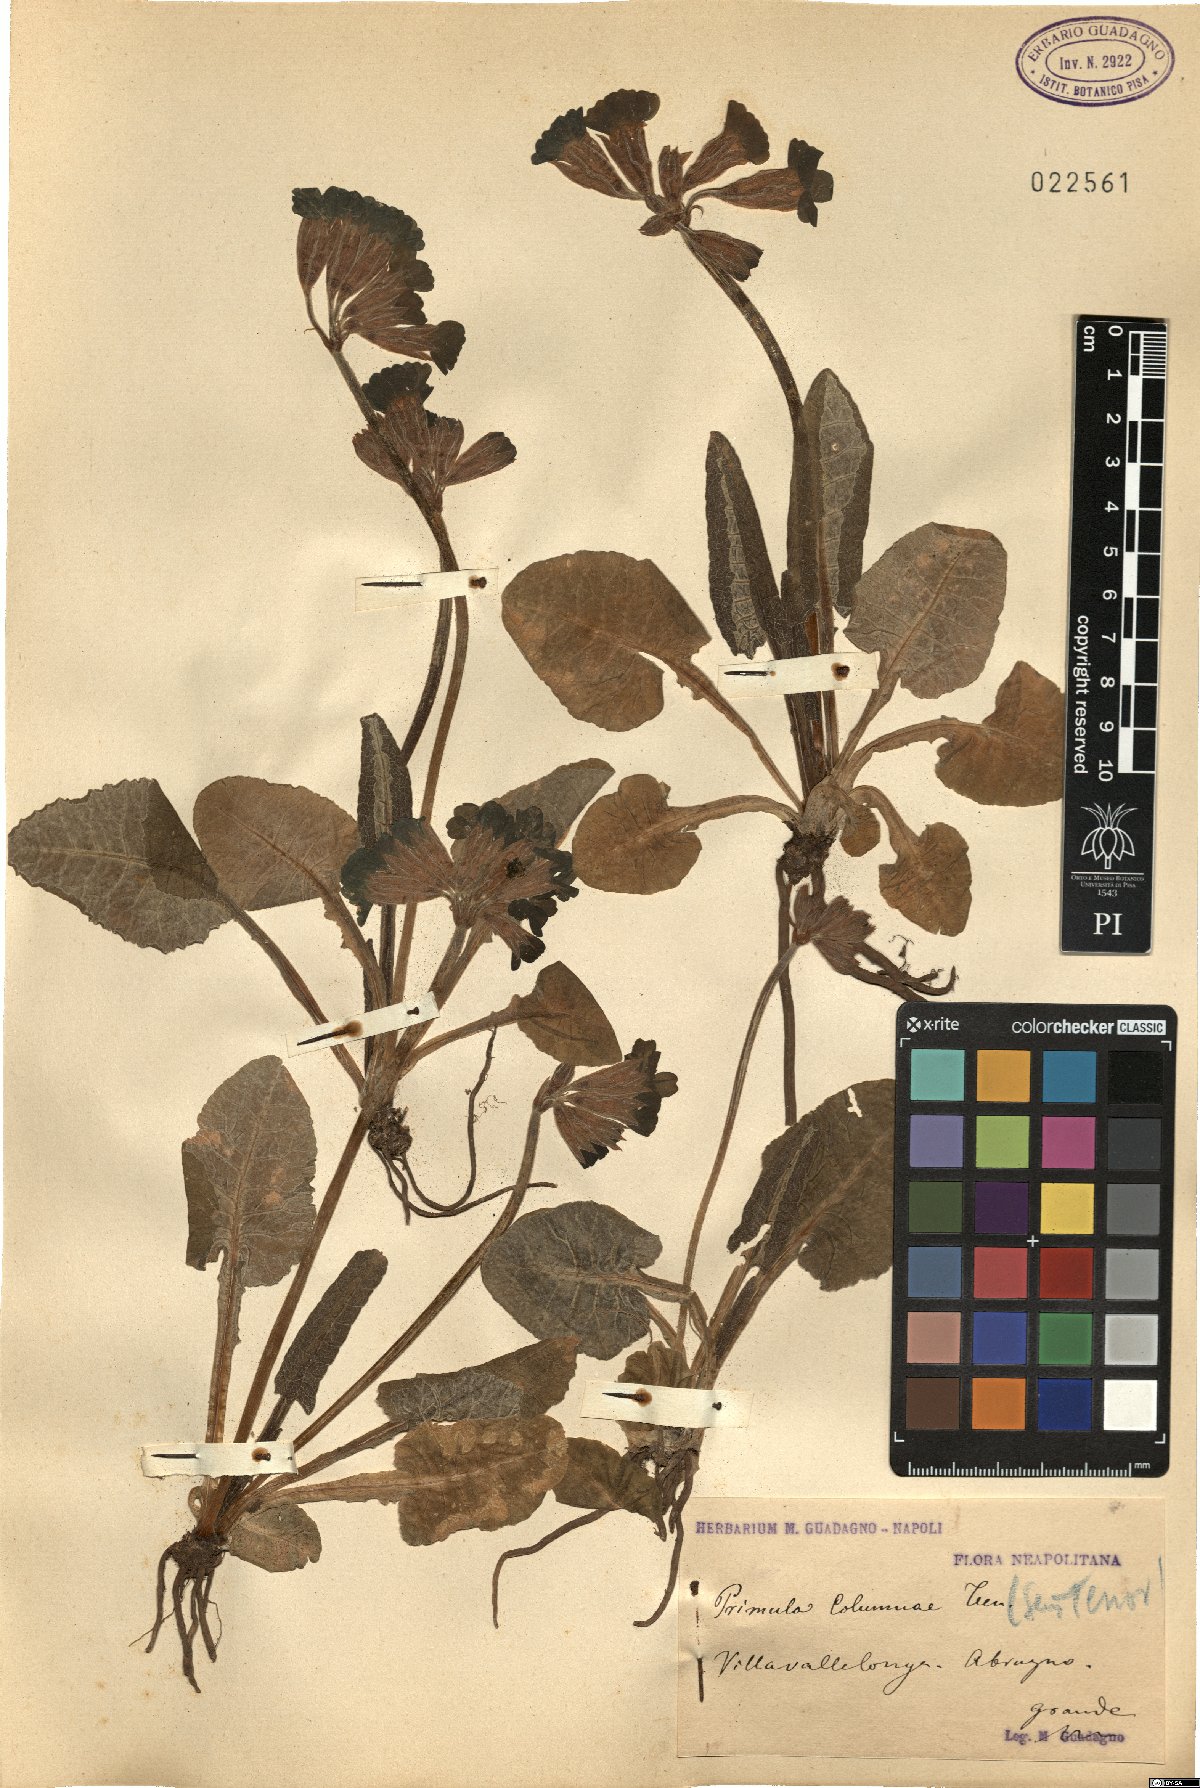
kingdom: Plantae
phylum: Tracheophyta
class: Magnoliopsida
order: Ericales
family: Primulaceae
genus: Primula
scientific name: Primula veris
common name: Cowslip
